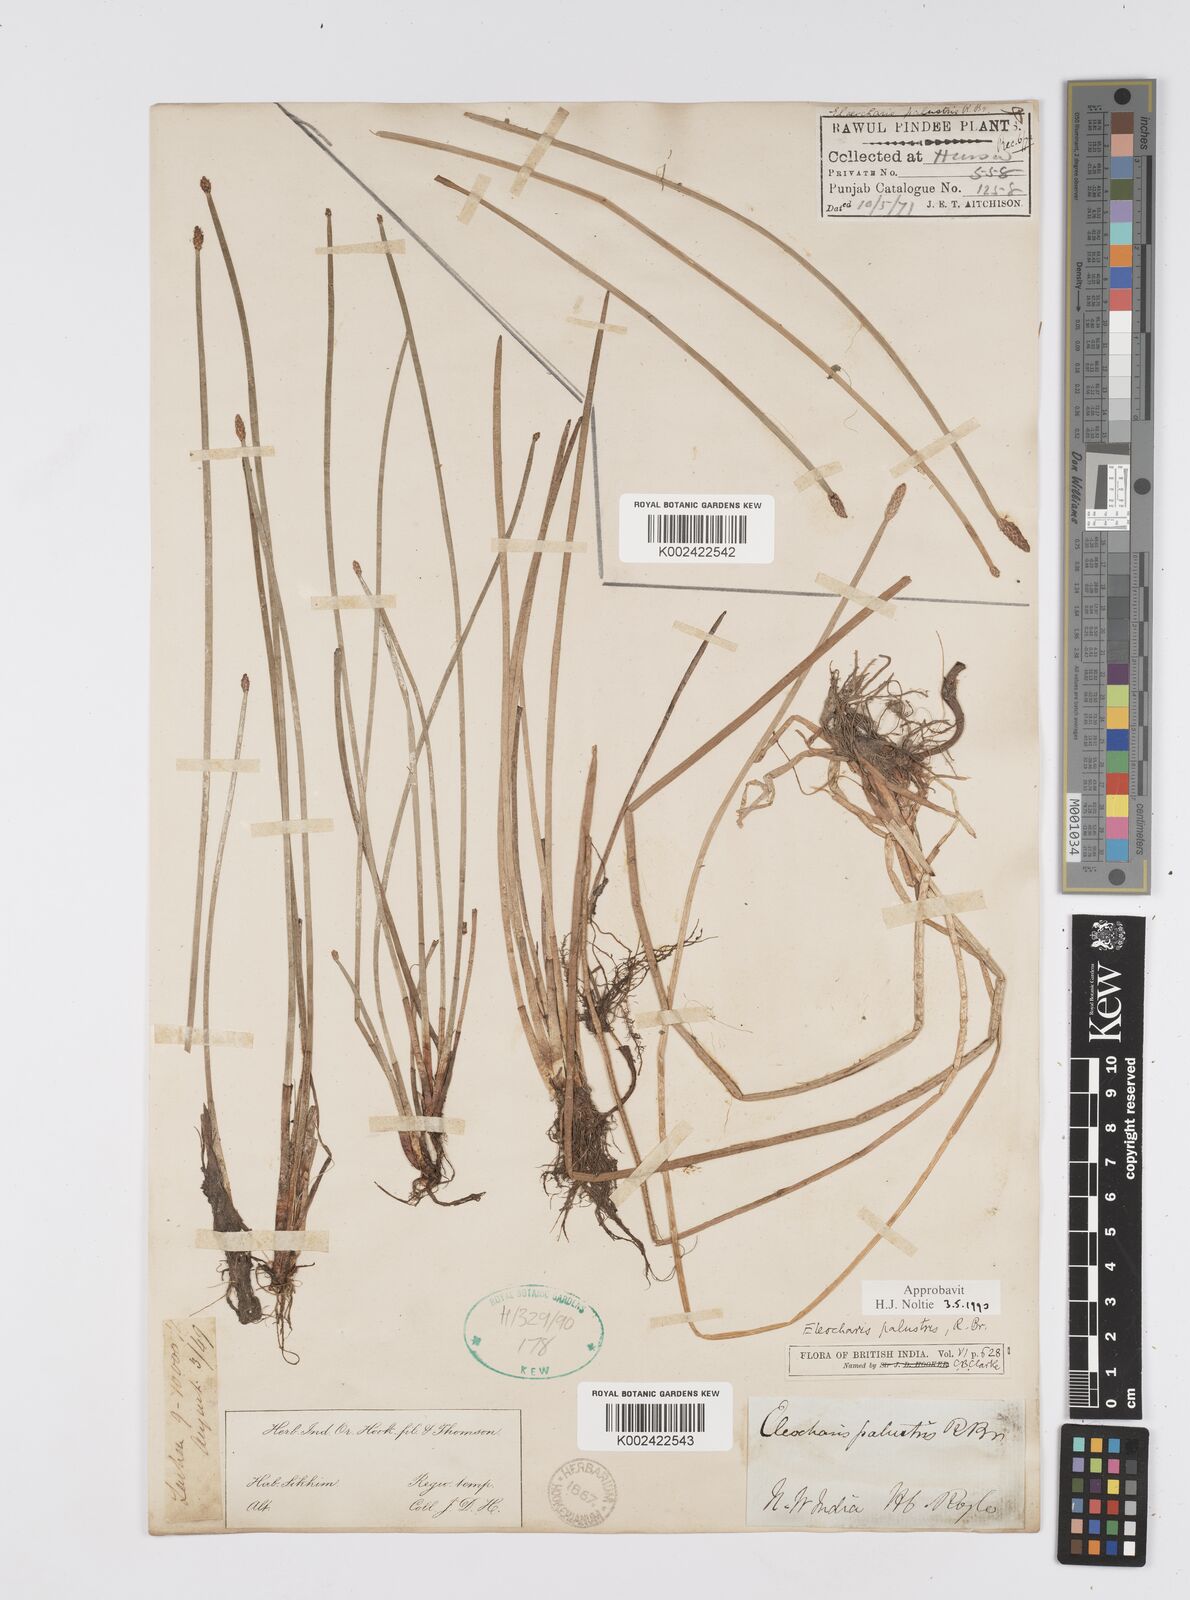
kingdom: Plantae
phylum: Tracheophyta
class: Liliopsida
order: Poales
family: Cyperaceae
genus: Eleocharis
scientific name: Eleocharis palustris
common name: Common spike-rush
